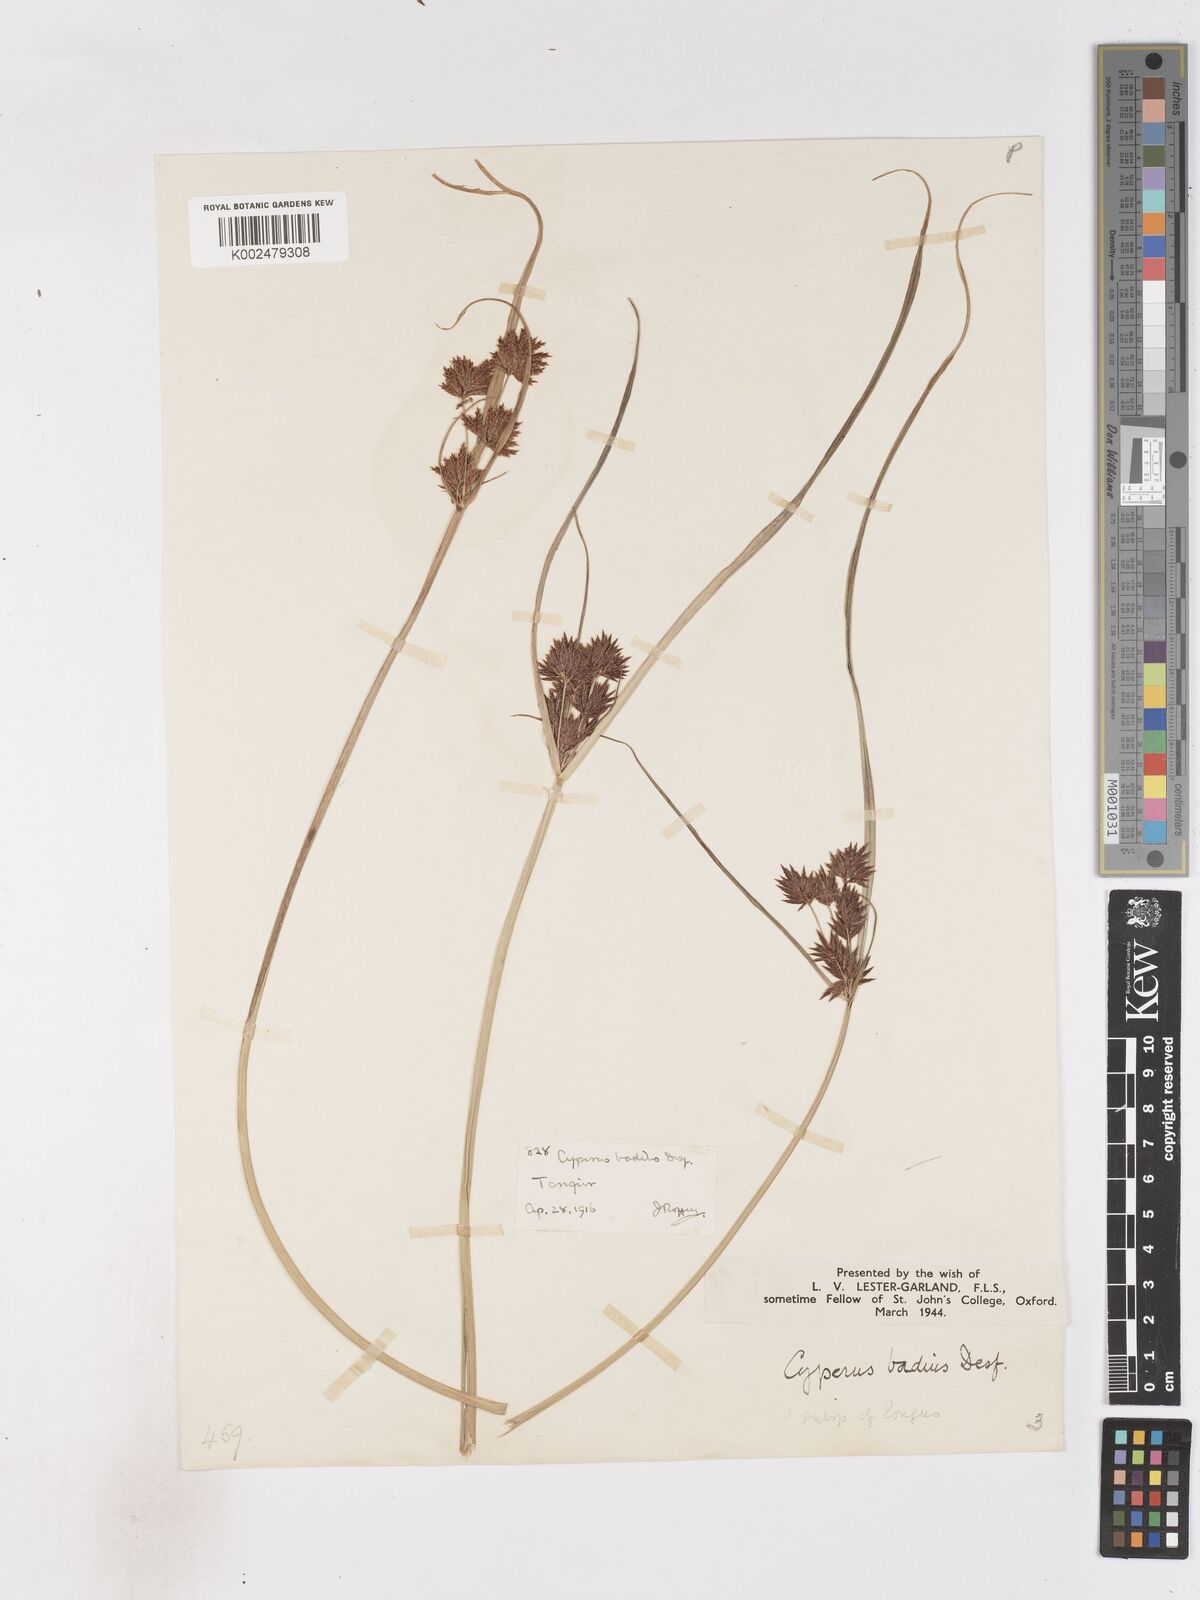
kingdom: Plantae
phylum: Tracheophyta
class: Liliopsida
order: Poales
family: Cyperaceae
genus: Cyperus
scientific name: Cyperus longus
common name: Galingale
